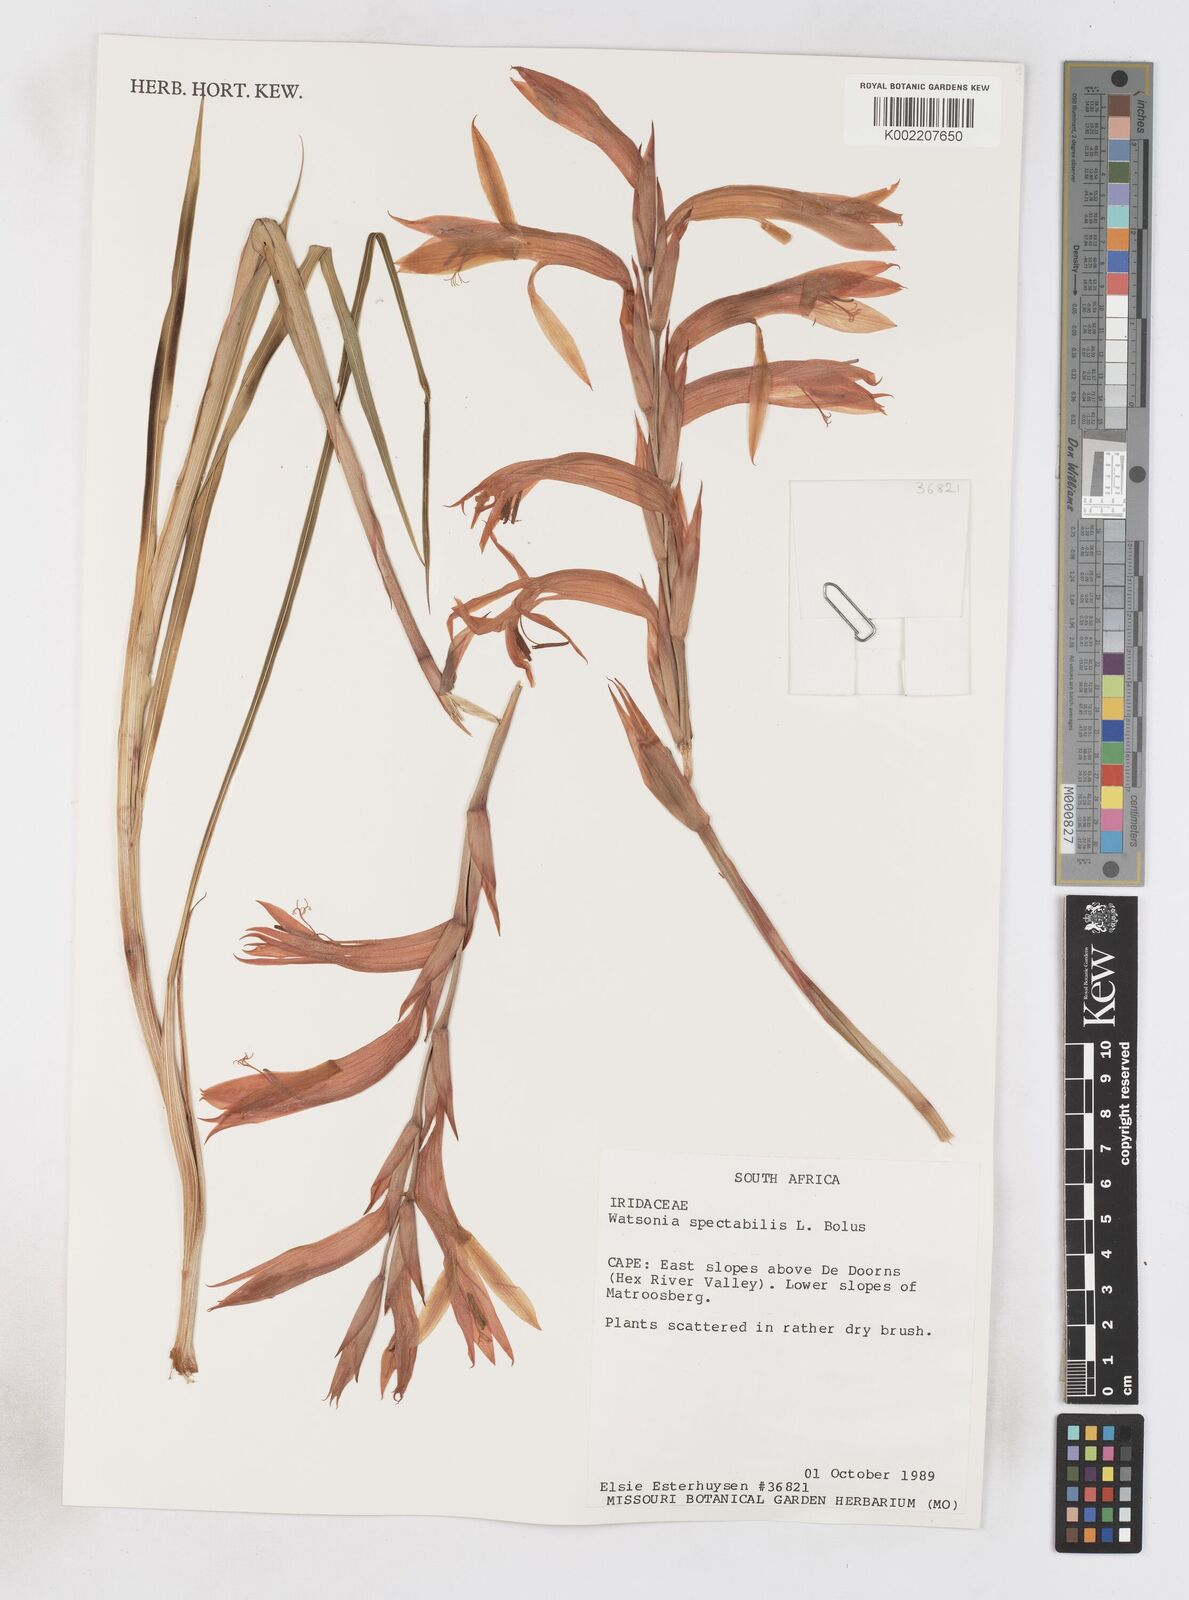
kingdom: Plantae
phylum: Tracheophyta
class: Liliopsida
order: Asparagales
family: Iridaceae
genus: Watsonia
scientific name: Watsonia spectabilis
